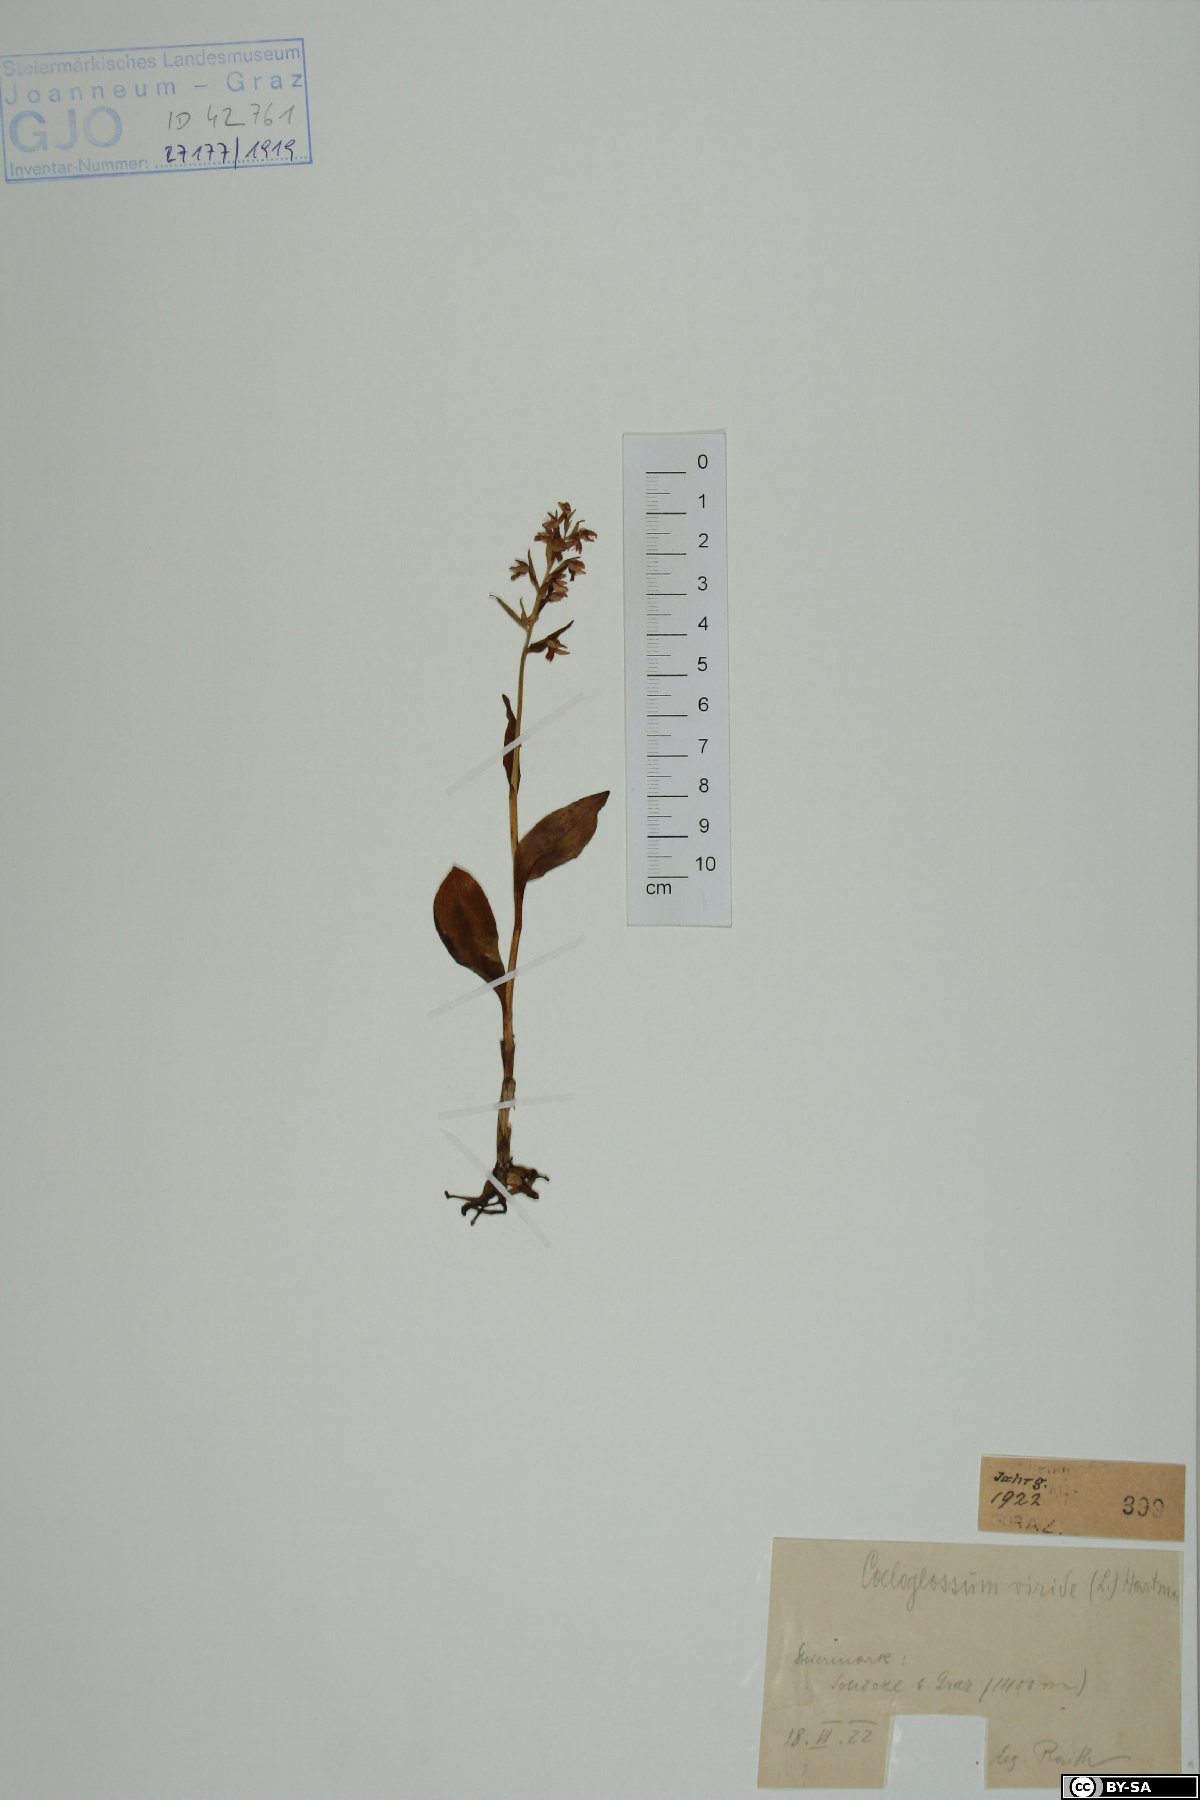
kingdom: Plantae
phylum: Tracheophyta
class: Liliopsida
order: Asparagales
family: Orchidaceae
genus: Dactylorhiza
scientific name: Dactylorhiza viridis
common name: Longbract frog orchid
